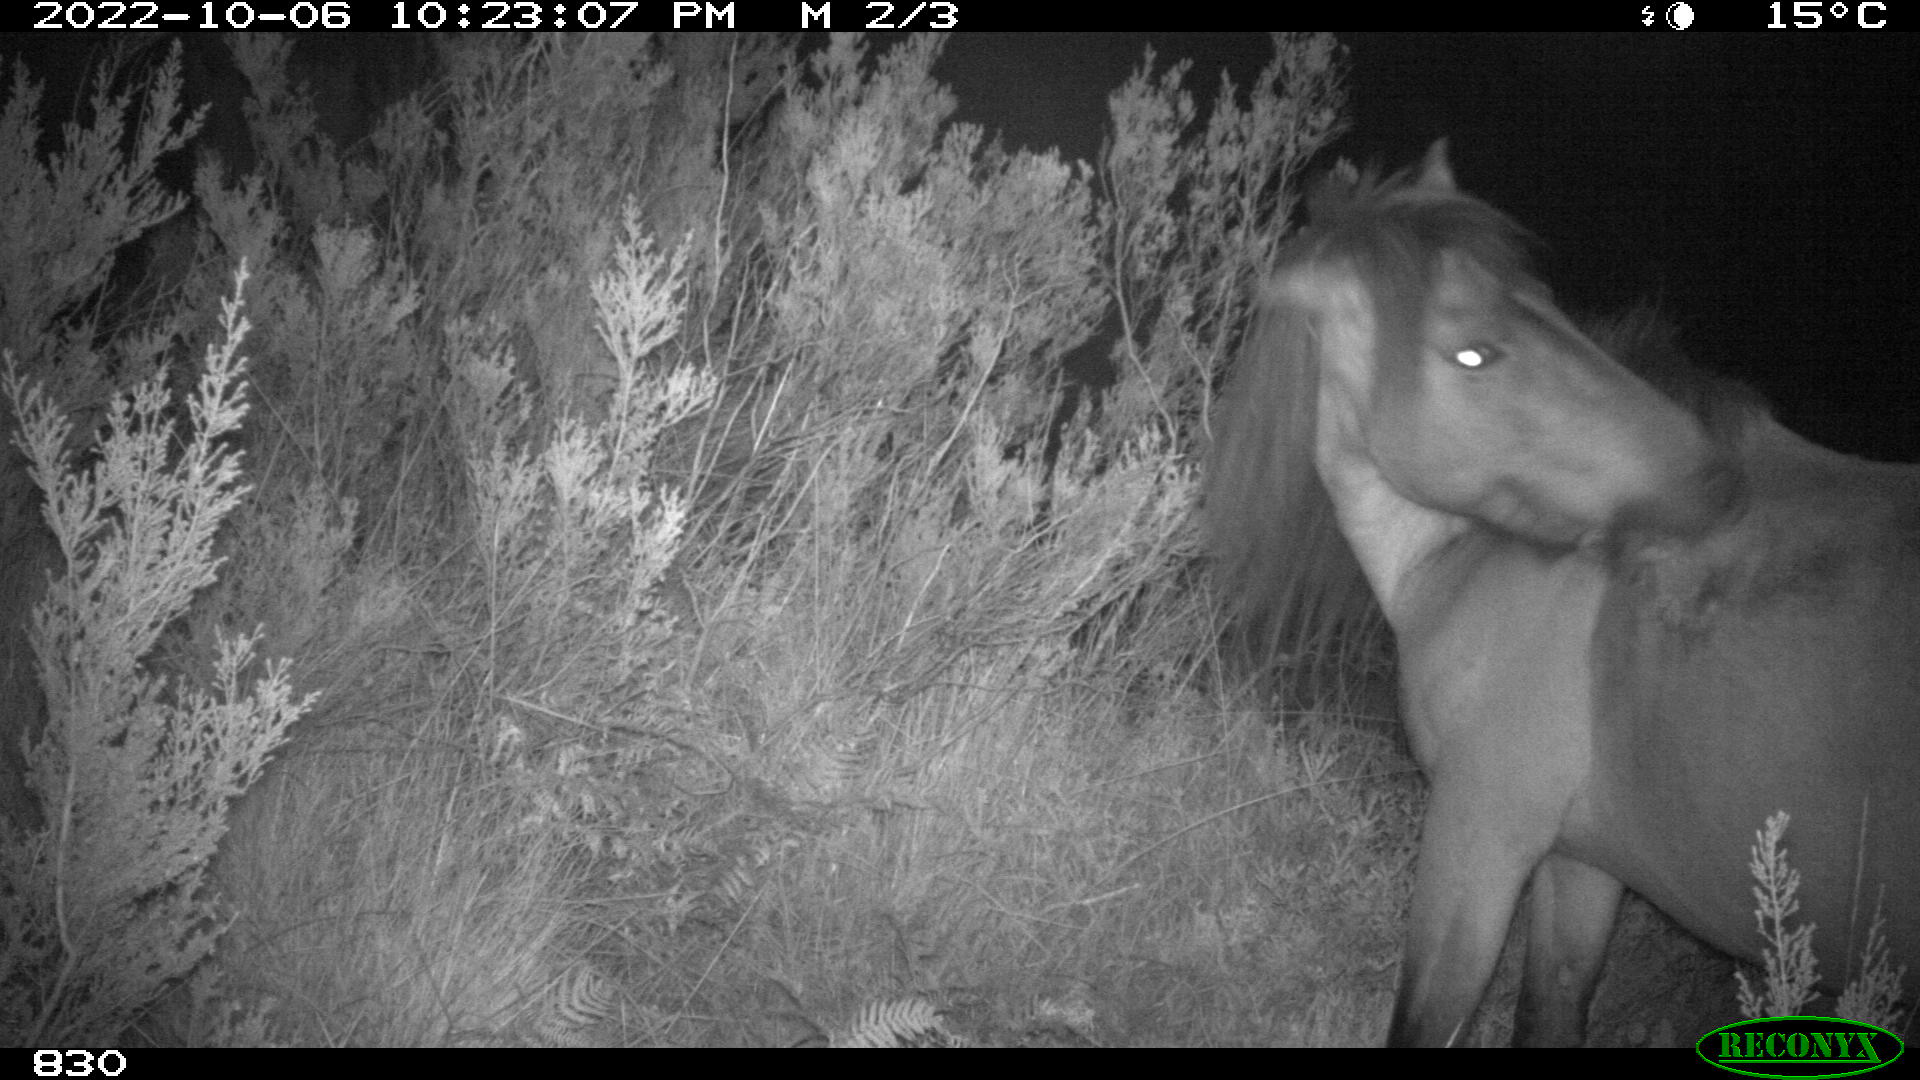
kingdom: Animalia
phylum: Chordata
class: Mammalia
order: Perissodactyla
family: Equidae
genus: Equus
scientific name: Equus caballus
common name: Horse
